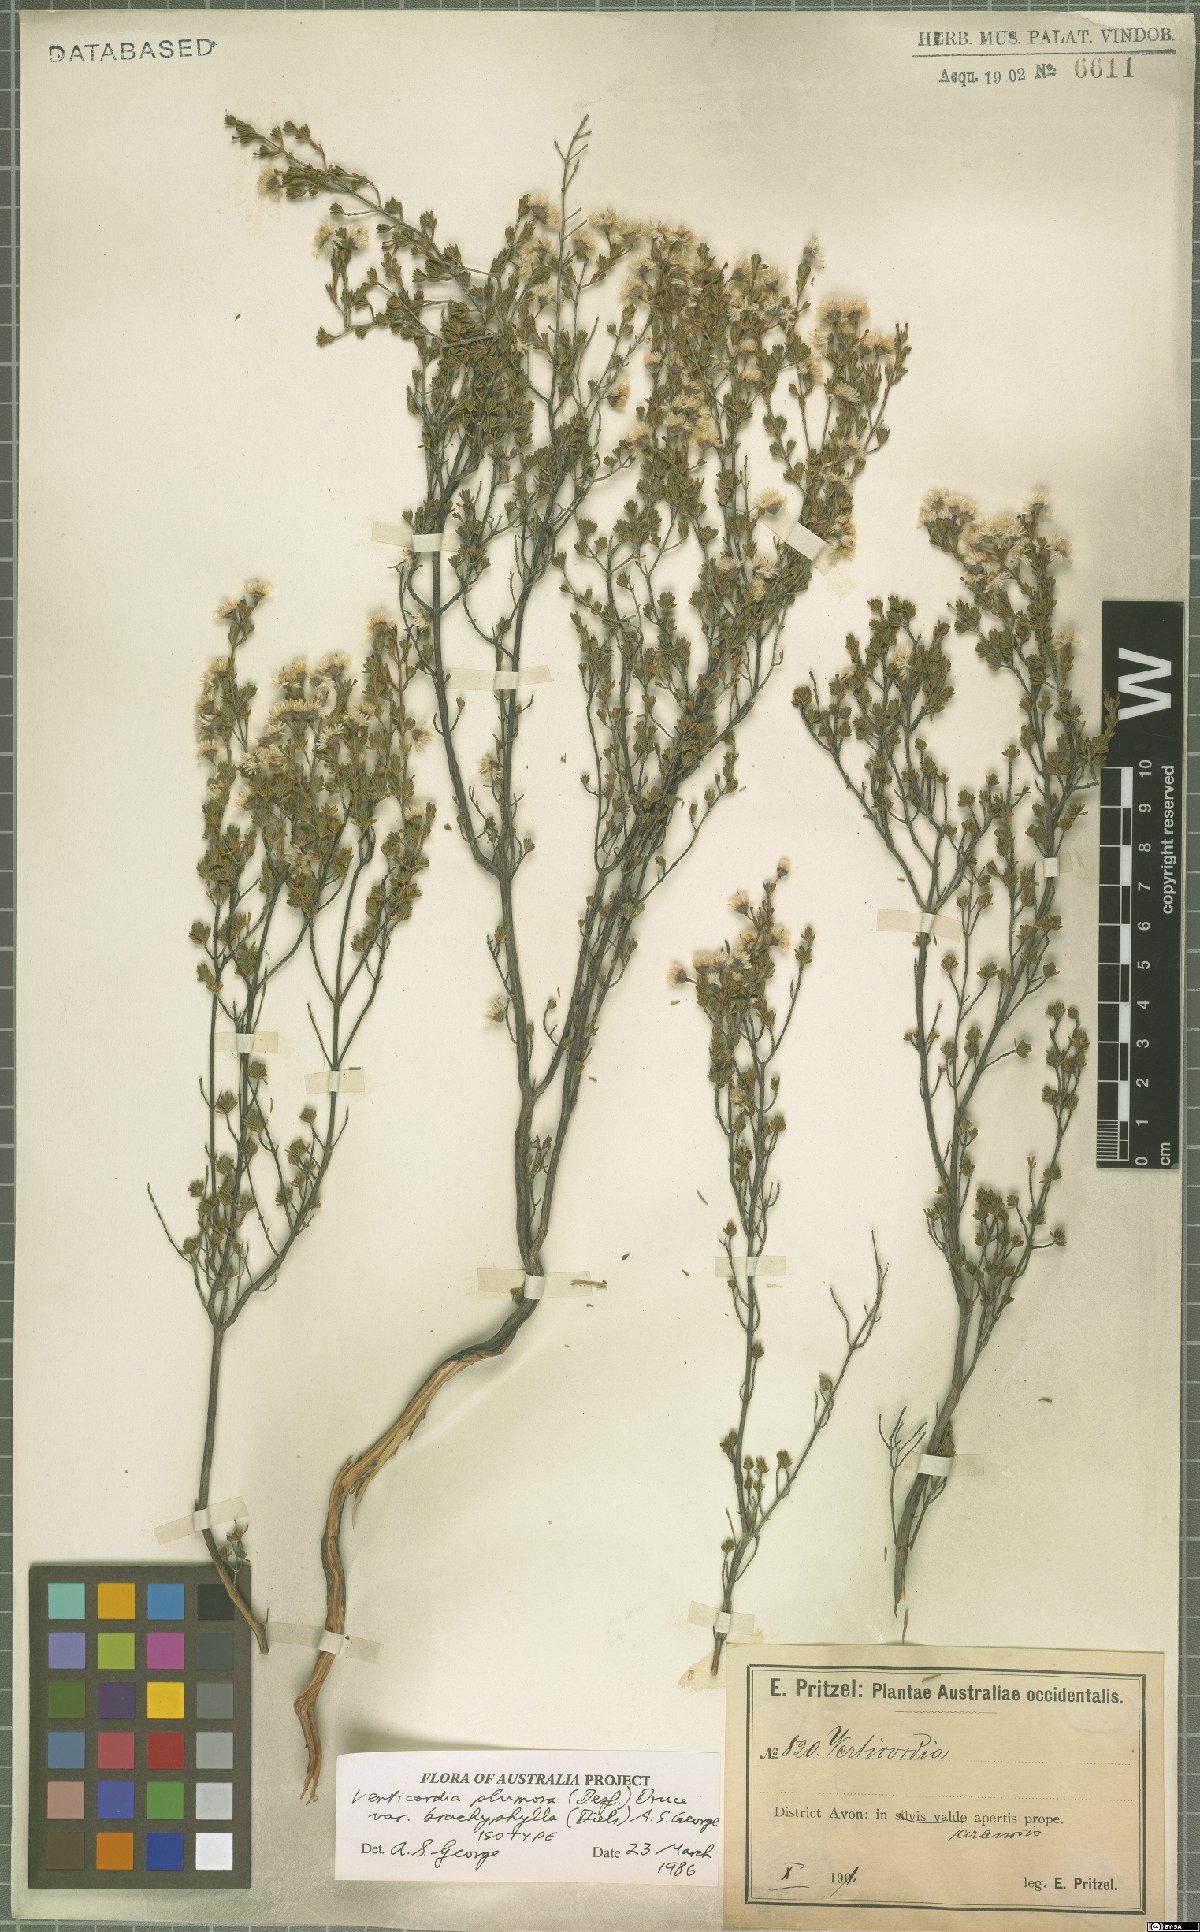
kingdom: Plantae
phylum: Tracheophyta
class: Magnoliopsida
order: Myrtales
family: Myrtaceae
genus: Verticordia
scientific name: Verticordia plumosa
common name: Plume feather-flower
